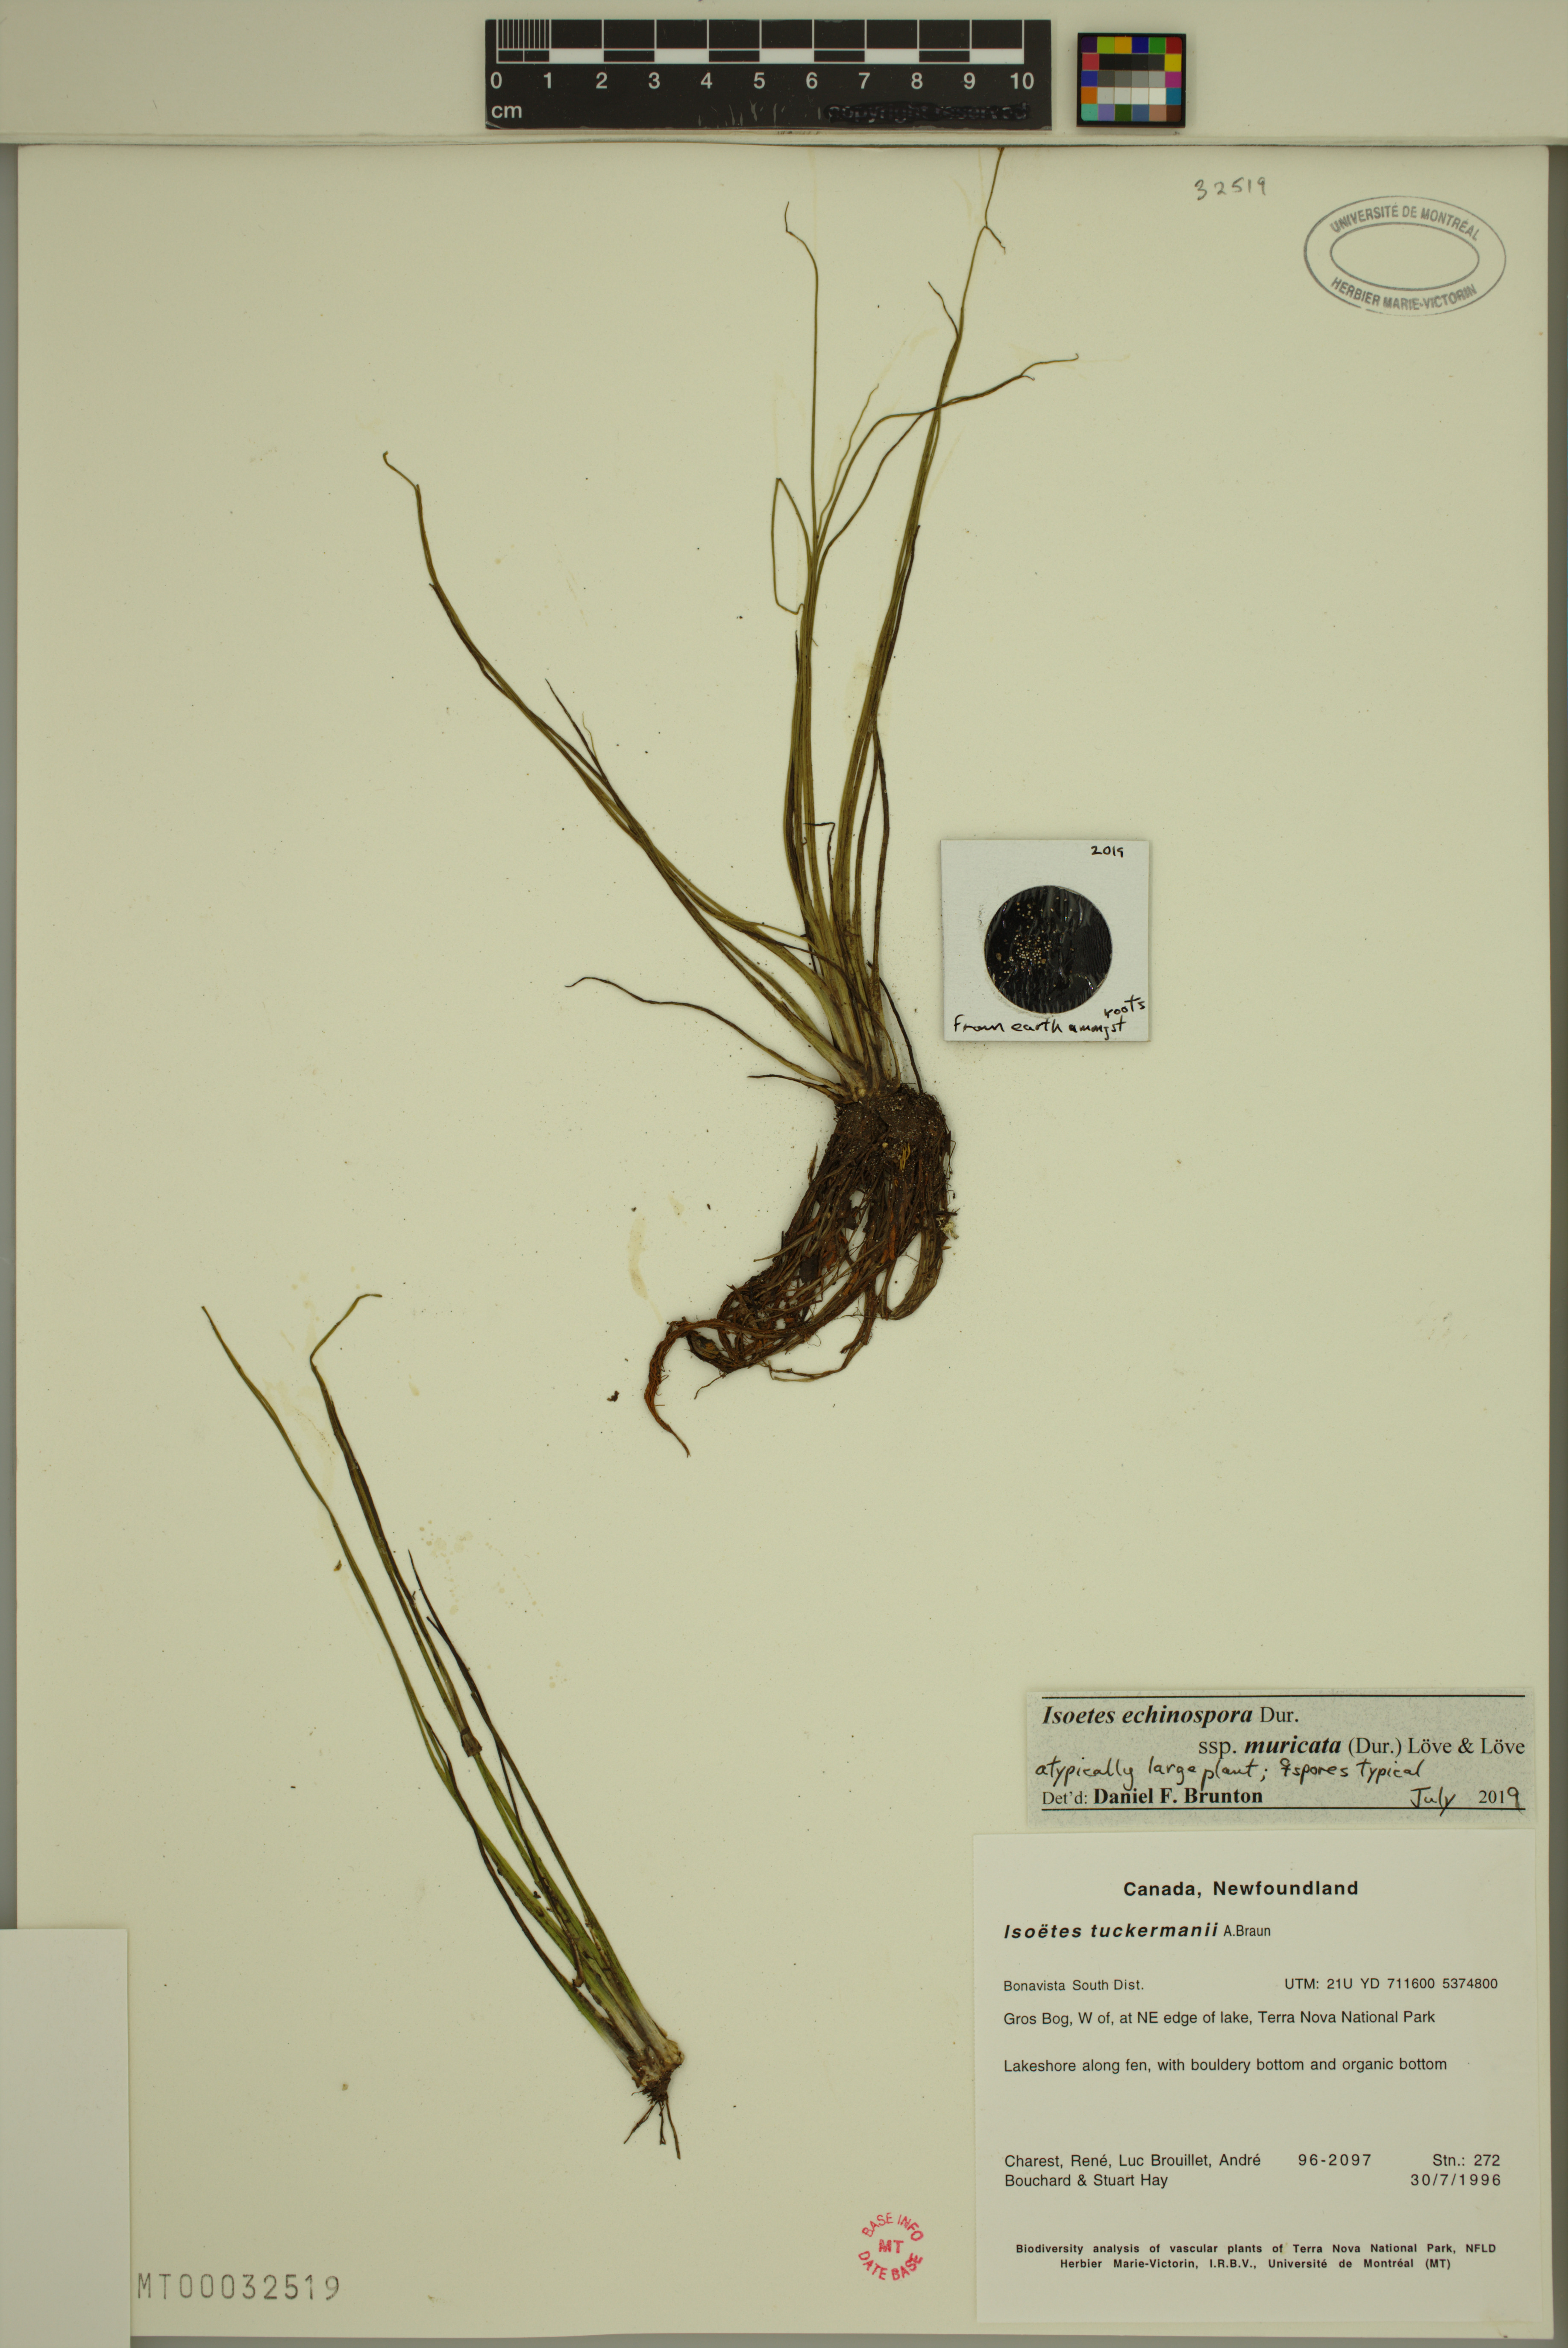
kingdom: Plantae
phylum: Tracheophyta
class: Lycopodiopsida
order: Isoetales
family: Isoetaceae
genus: Isoetes
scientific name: Isoetes echinospora
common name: Spring quillwort
